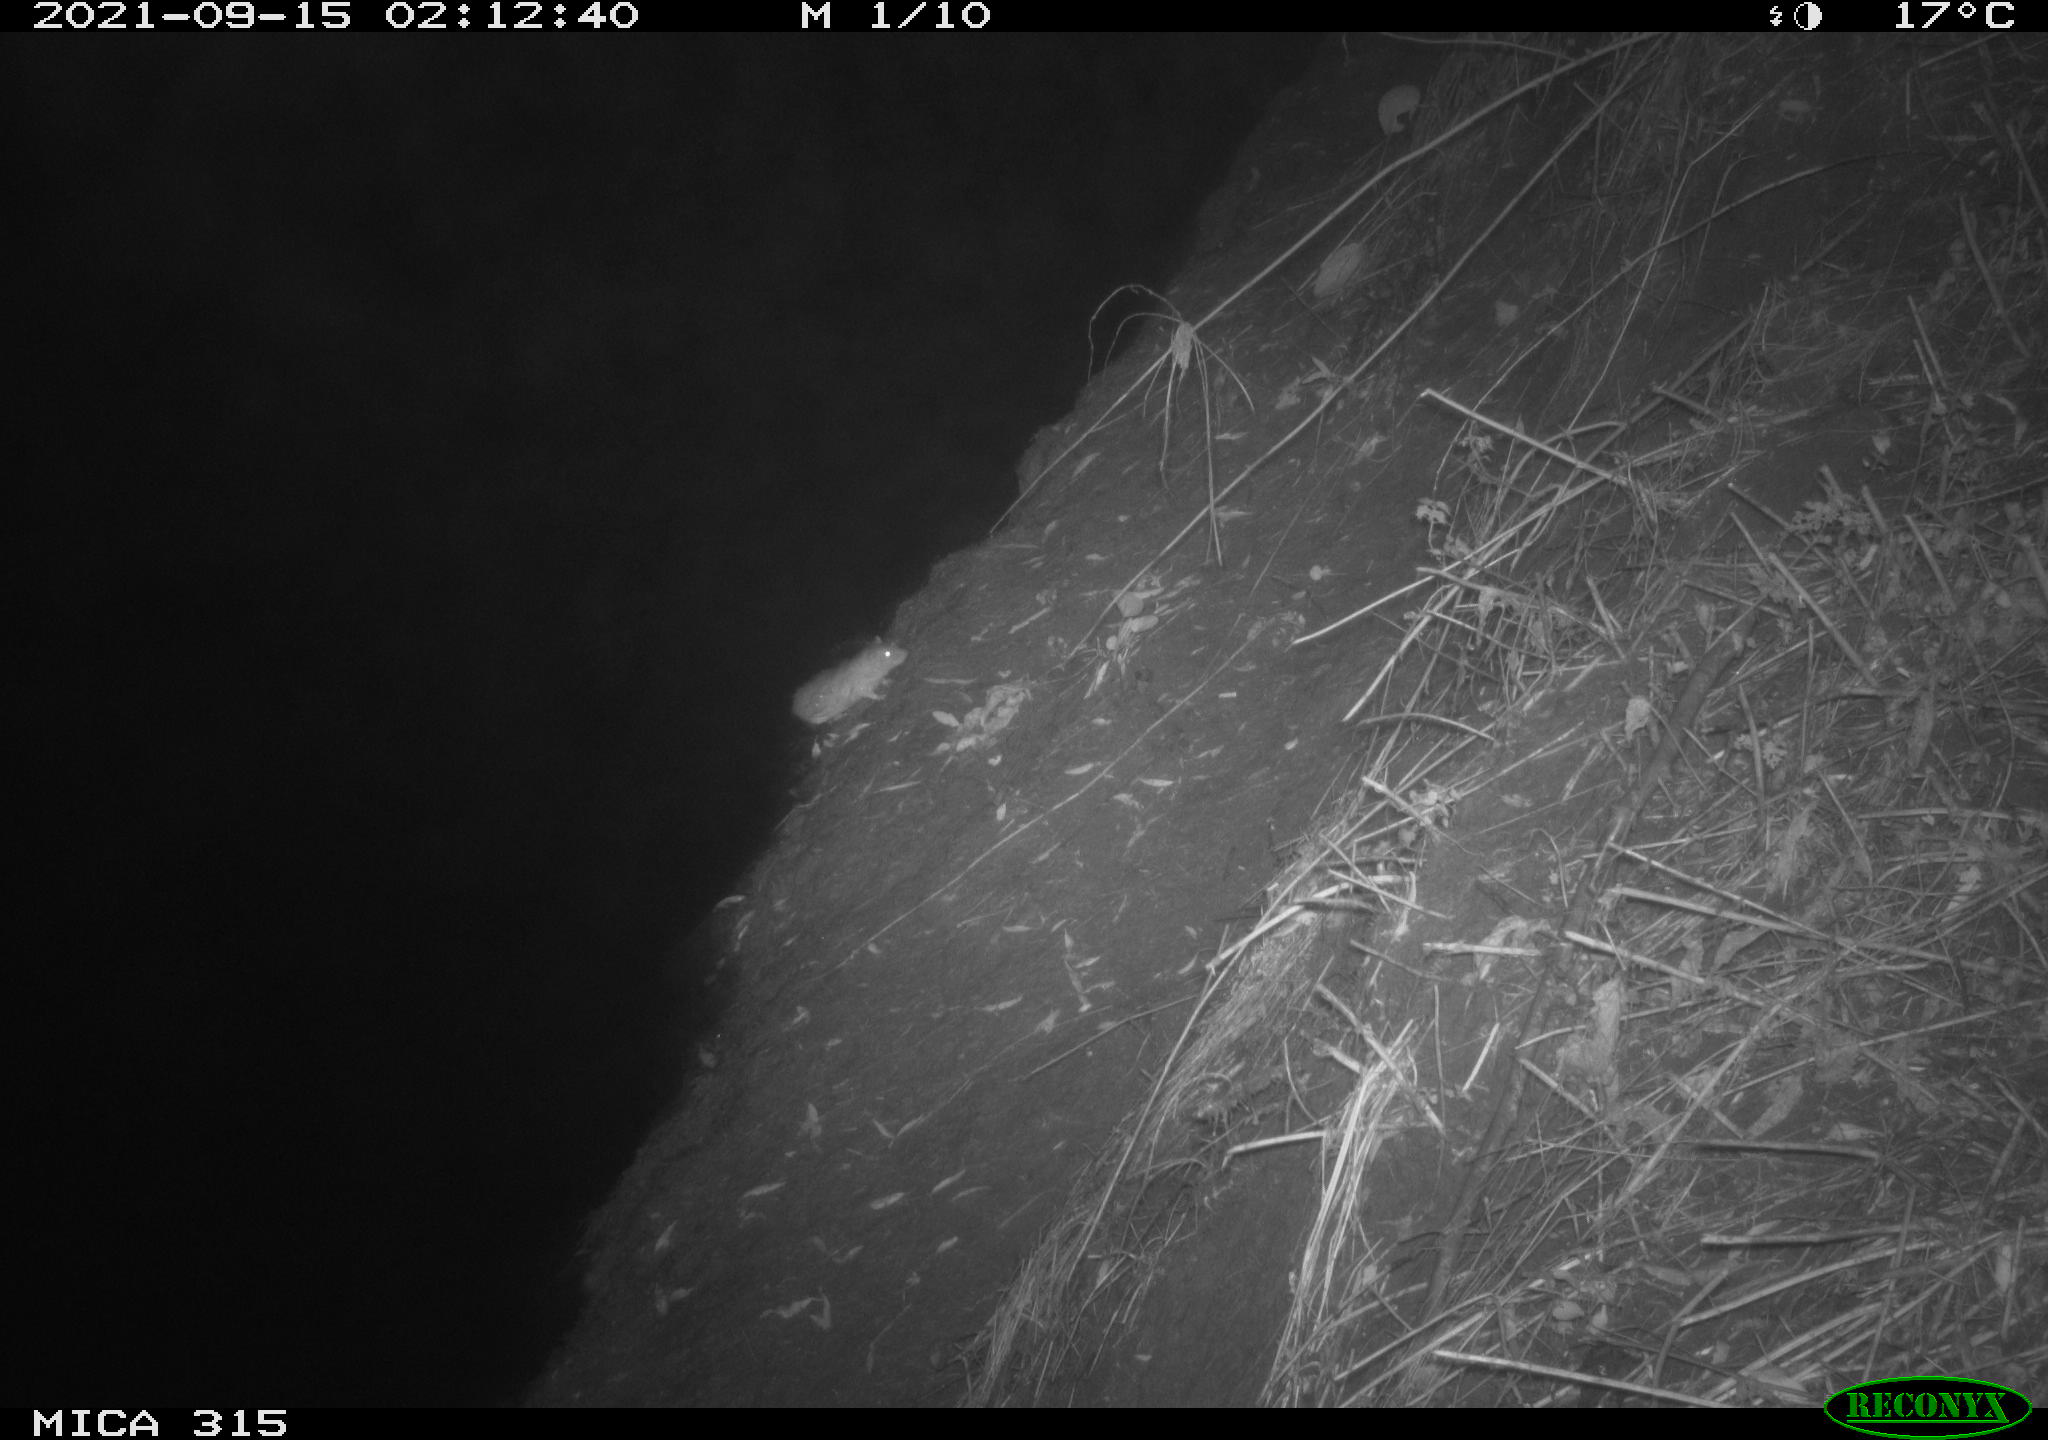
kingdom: Animalia
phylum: Chordata
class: Mammalia
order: Rodentia
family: Muridae
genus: Rattus
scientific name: Rattus norvegicus
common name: Brown rat
